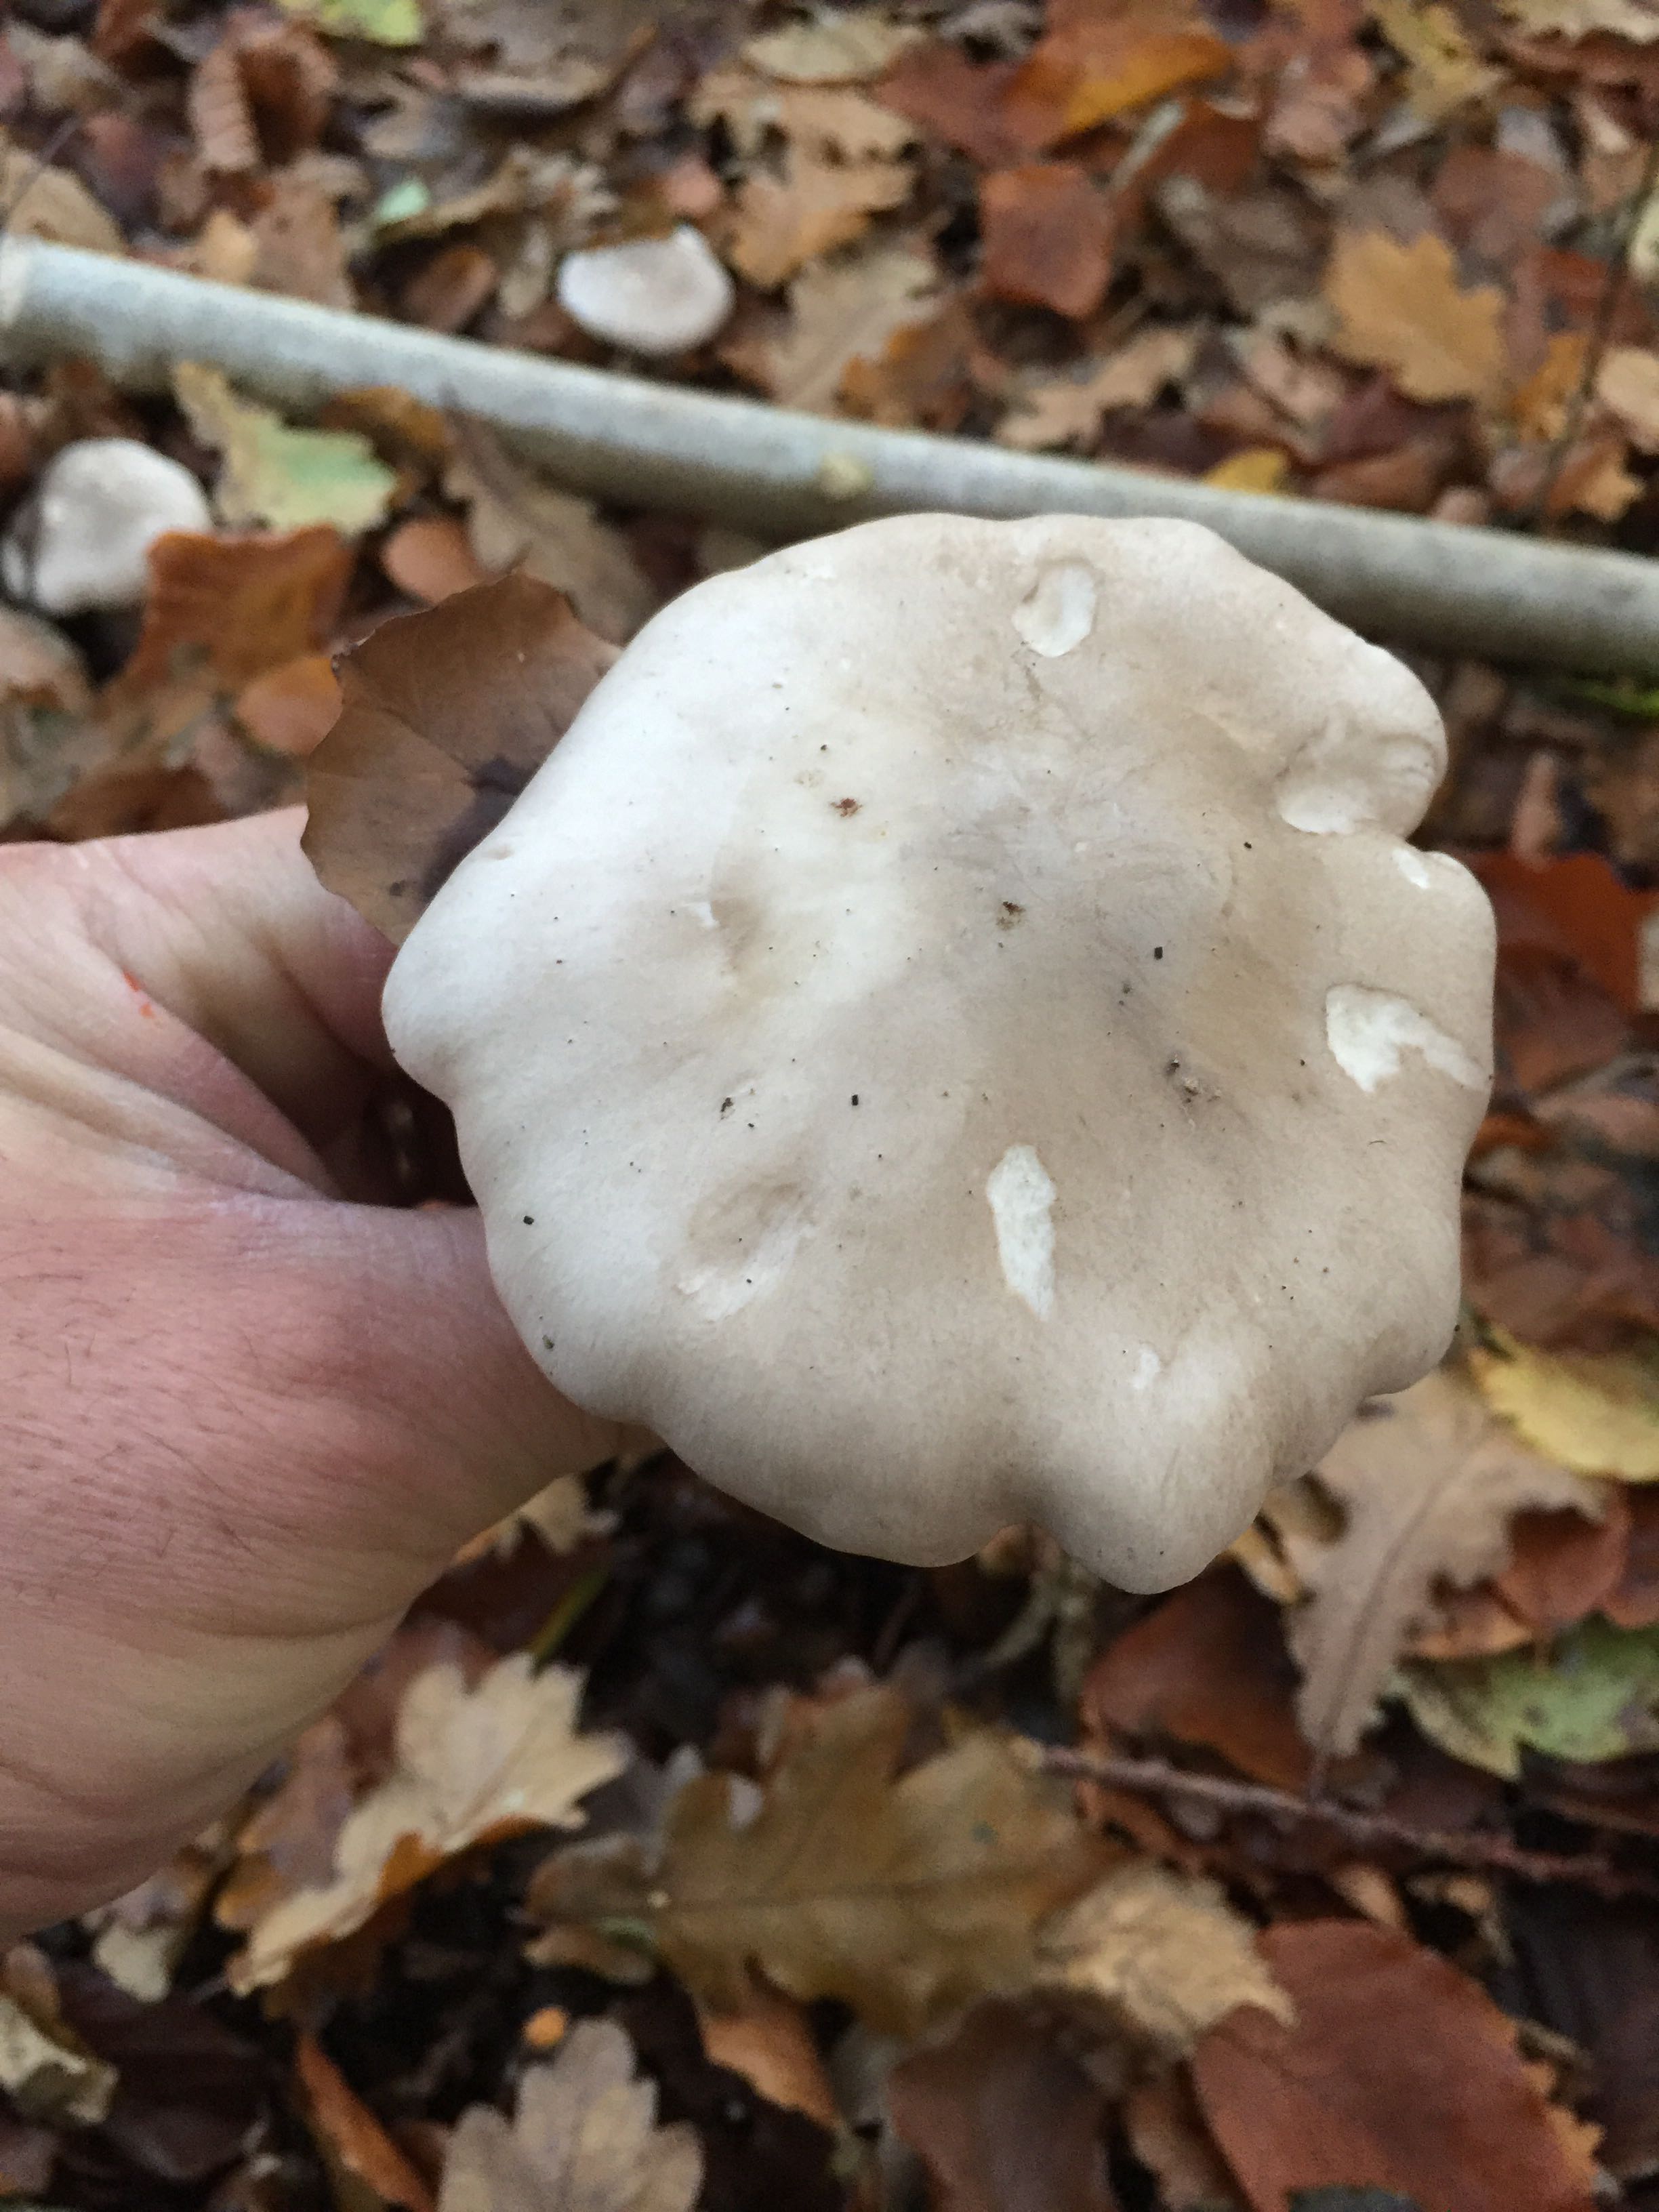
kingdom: Fungi
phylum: Basidiomycota
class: Agaricomycetes
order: Agaricales
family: Tricholomataceae
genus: Clitocybe
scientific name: Clitocybe nebularis
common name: tåge-tragthat
